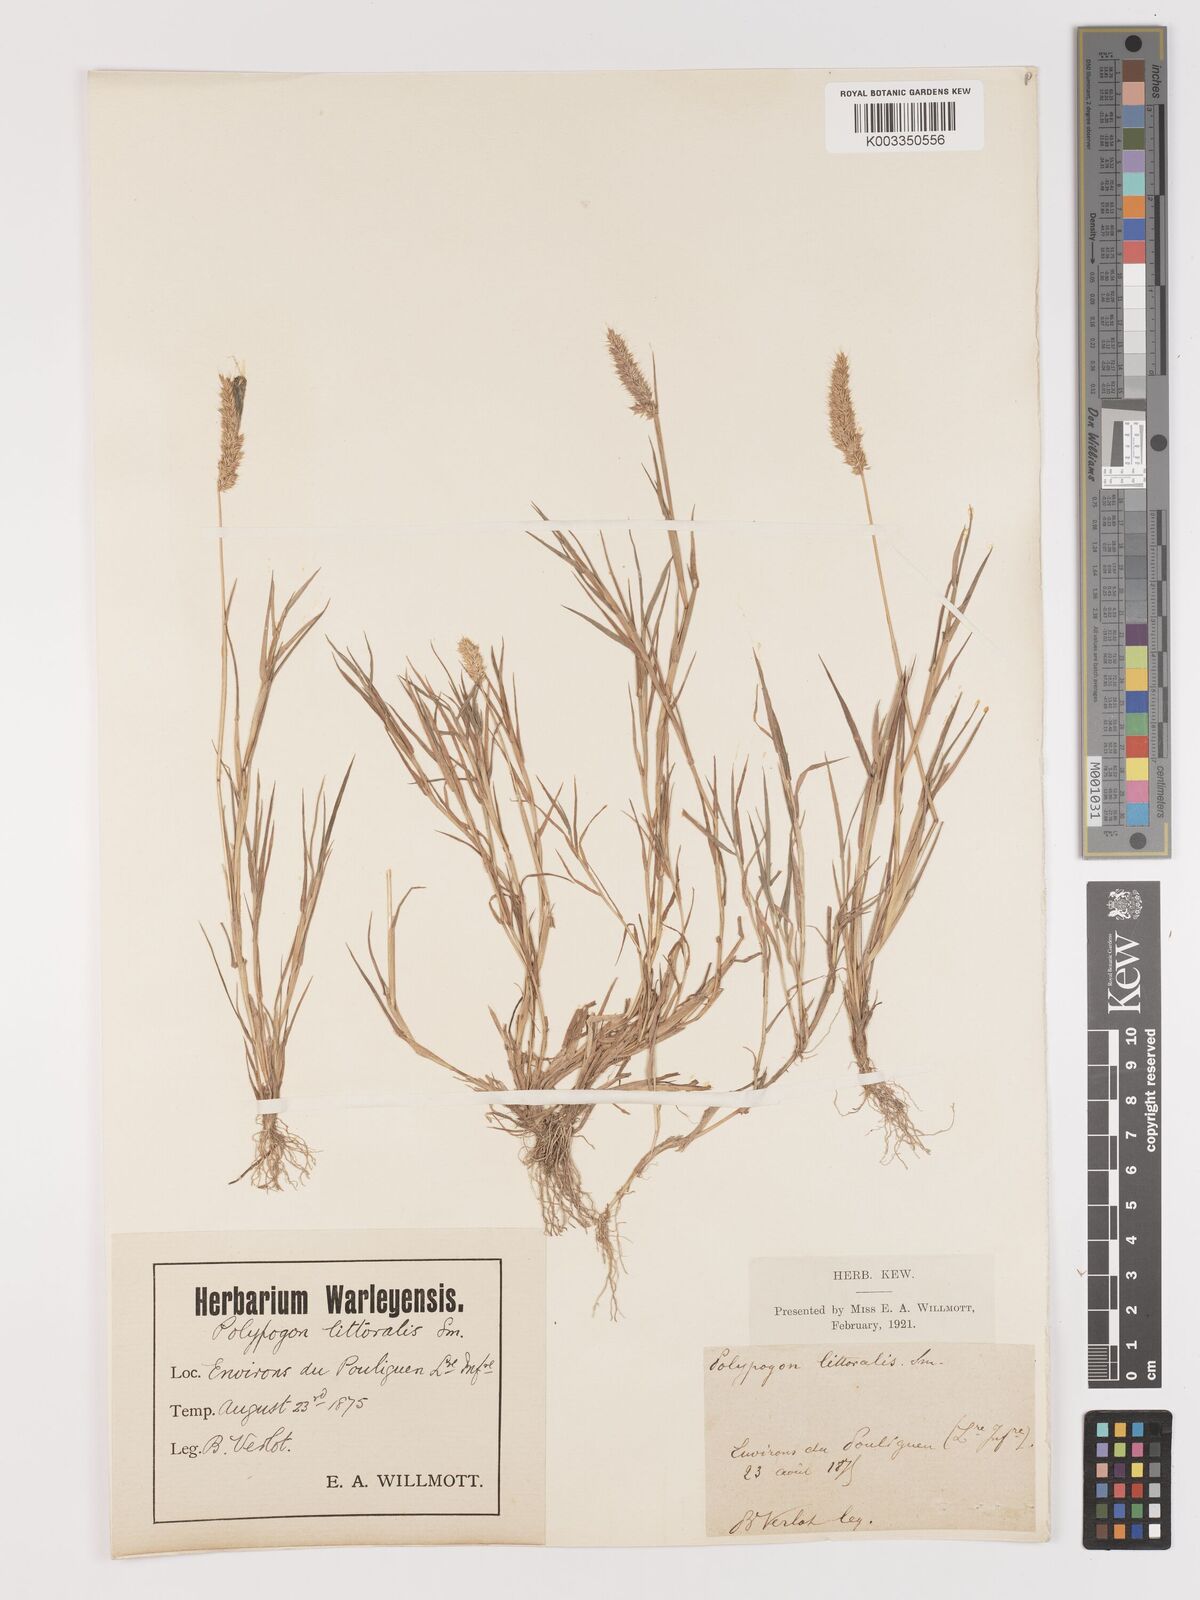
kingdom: Plantae
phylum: Tracheophyta
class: Liliopsida
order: Poales
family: Poaceae
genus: Agropogon
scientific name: Agropogon lutosus
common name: Coast agropogon
